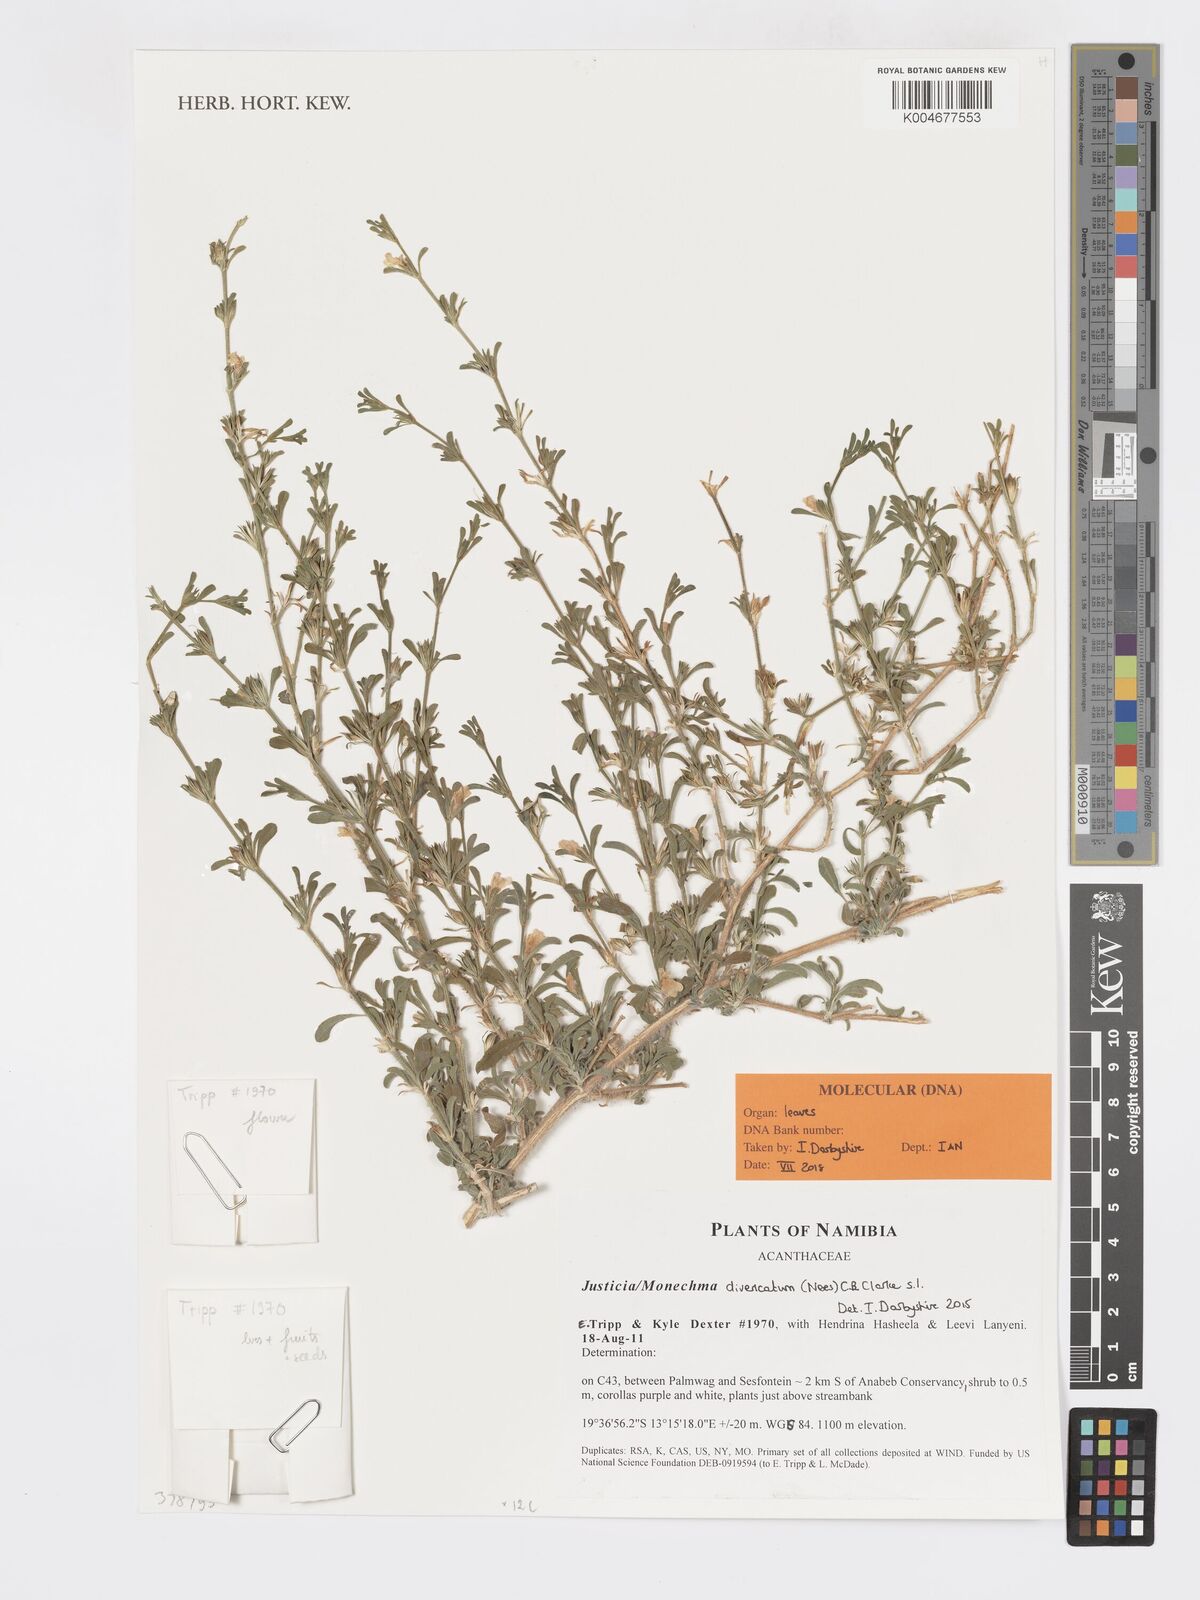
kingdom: Plantae
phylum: Tracheophyta
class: Magnoliopsida
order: Lamiales
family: Acanthaceae
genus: Pogonospermum
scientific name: Pogonospermum
